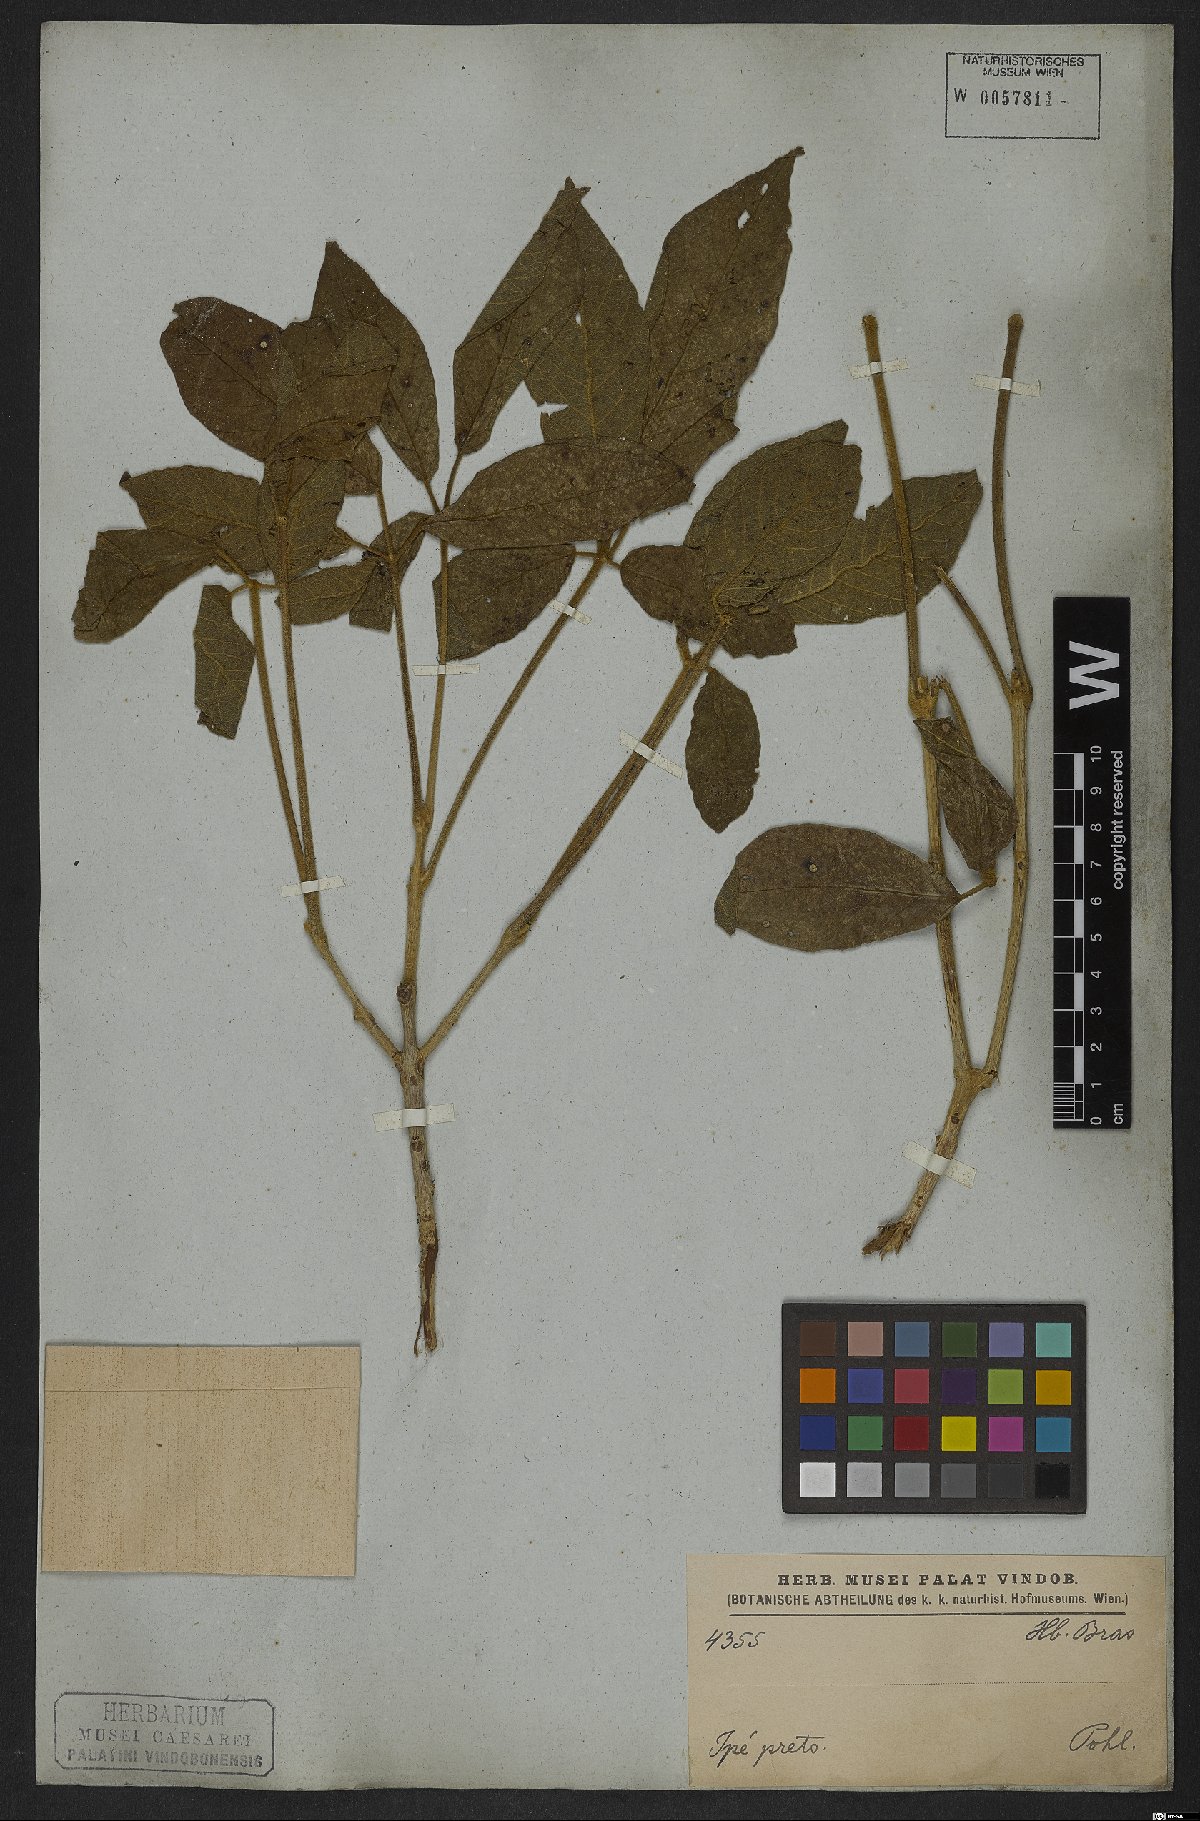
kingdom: Plantae
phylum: Tracheophyta
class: Magnoliopsida
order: Lamiales
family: Bignoniaceae
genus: Tabebuia
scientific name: Tabebuia aurea
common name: Caribbean trumpet-tree
